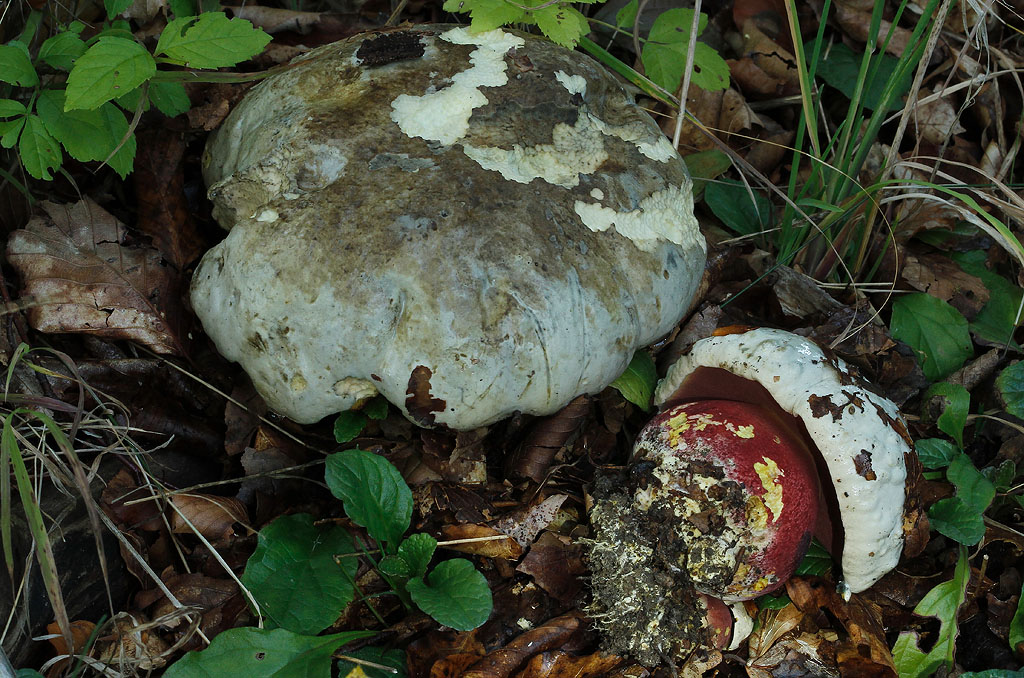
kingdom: Fungi
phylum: Basidiomycota
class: Agaricomycetes
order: Boletales
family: Boletaceae
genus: Rubroboletus
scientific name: Rubroboletus satanas
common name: Satans rørhat
